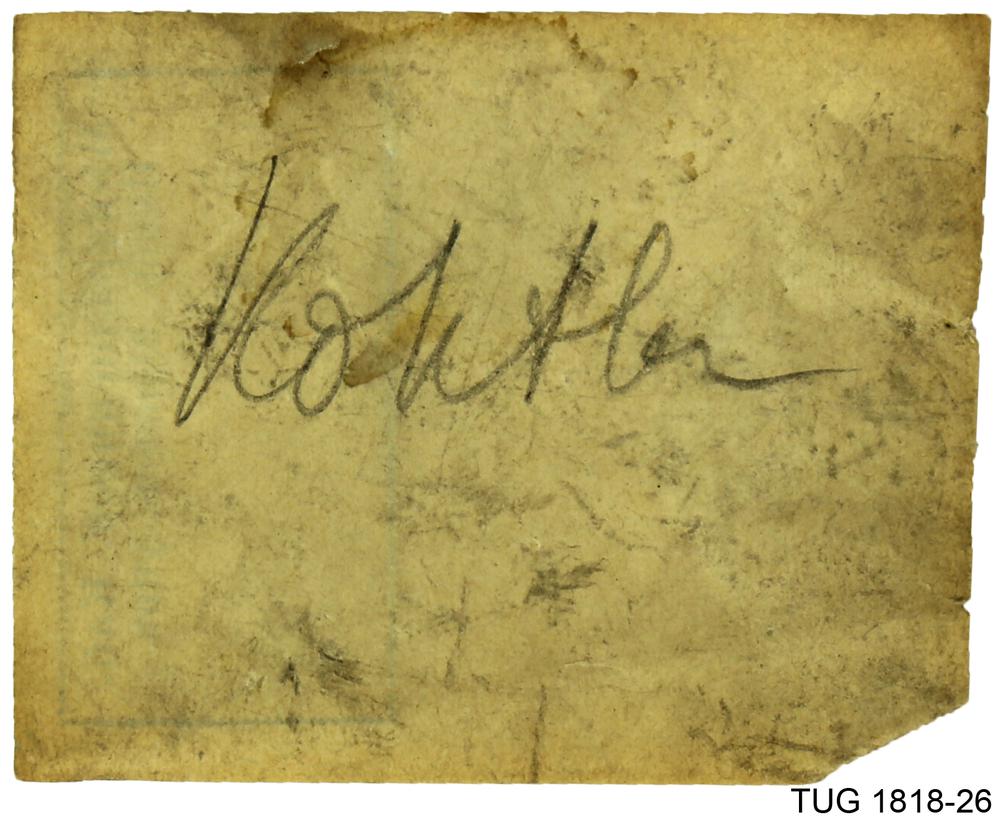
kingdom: Animalia
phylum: Mollusca
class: Cephalopoda
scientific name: Cephalopoda
